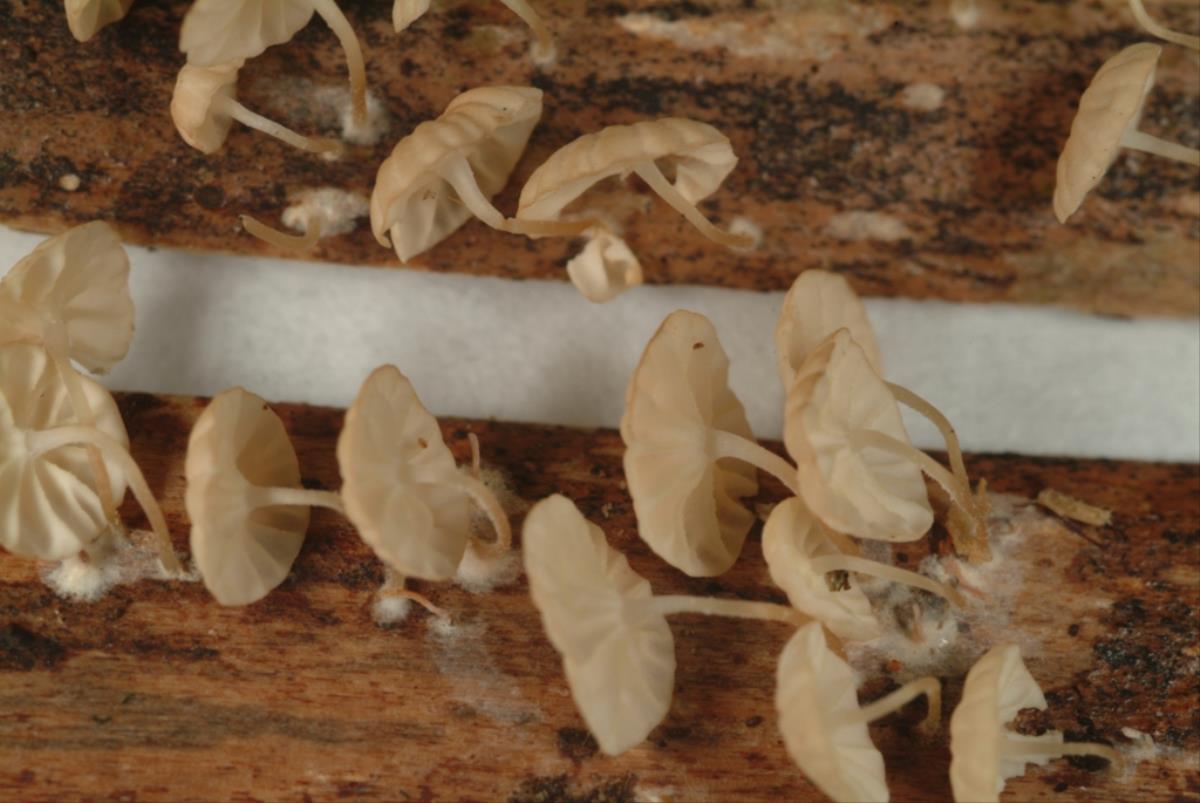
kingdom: Fungi
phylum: Basidiomycota
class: Agaricomycetes
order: Agaricales
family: Marasmiaceae
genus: Marasmius
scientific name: Marasmius
